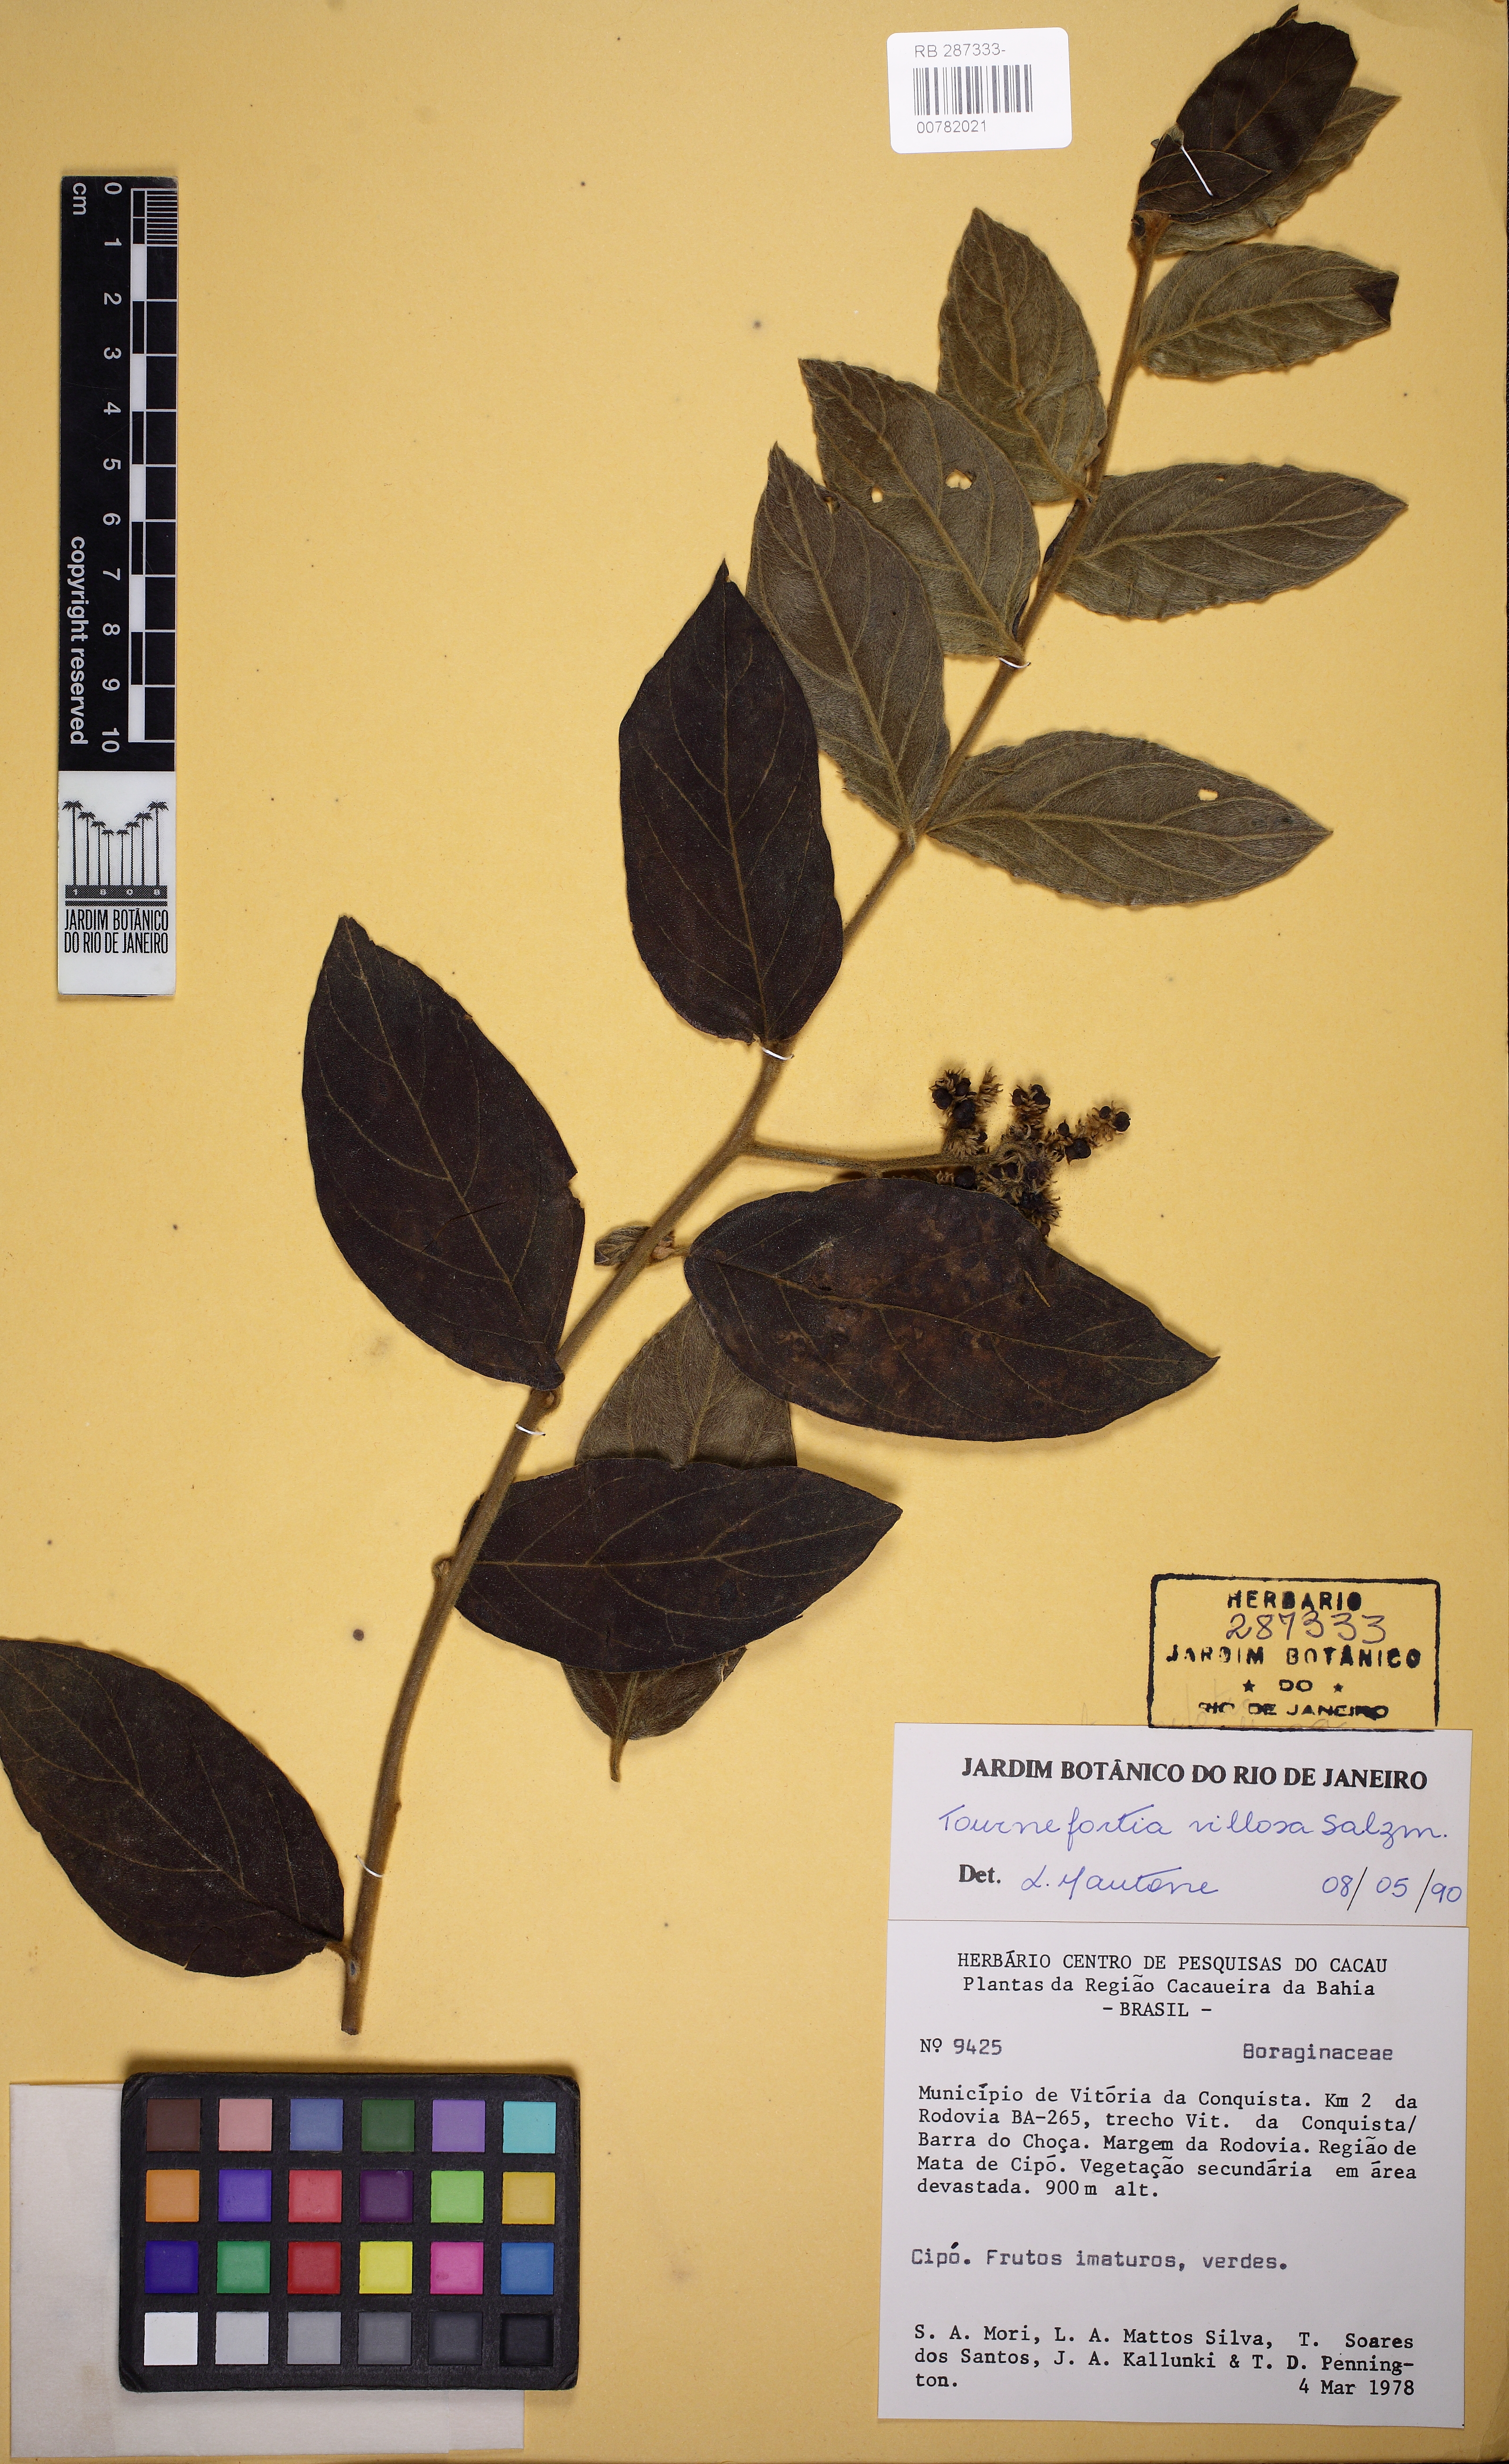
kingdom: Plantae
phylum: Tracheophyta
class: Magnoliopsida
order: Boraginales
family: Heliotropiaceae
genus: Tournefortia
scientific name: Tournefortia villosa
